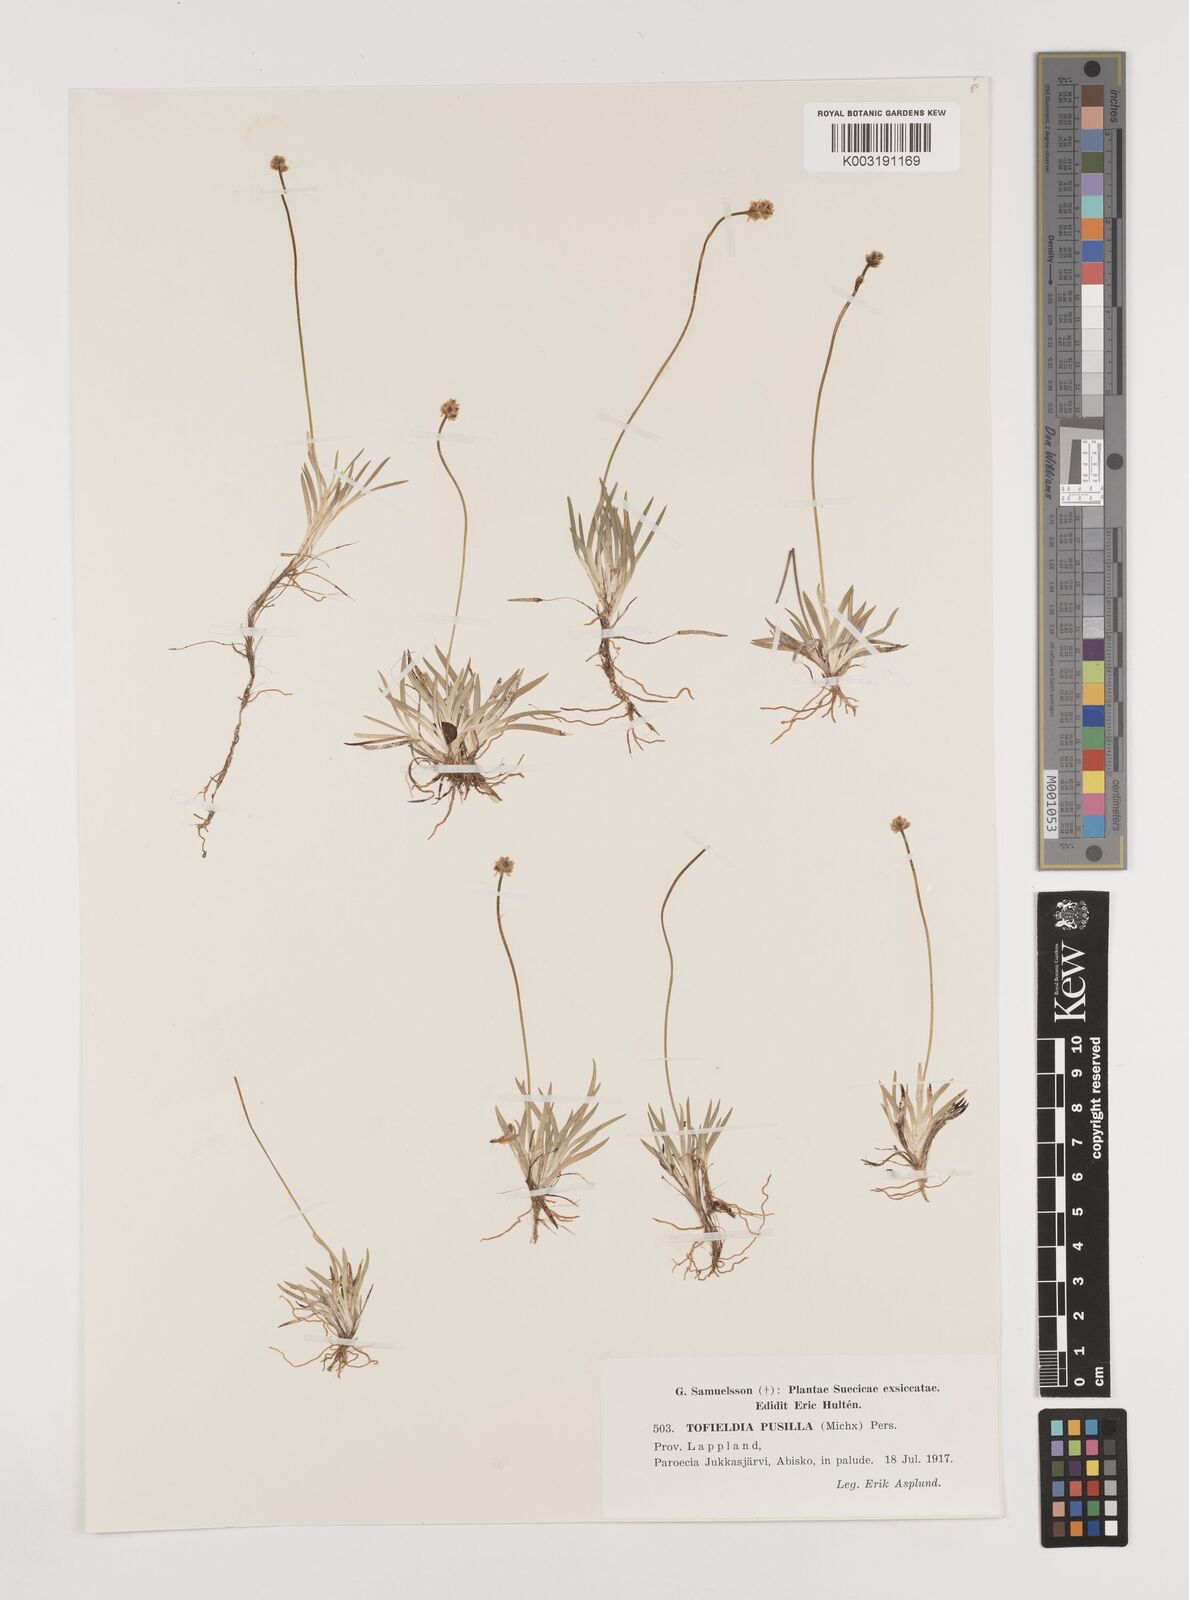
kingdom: Plantae
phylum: Tracheophyta
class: Liliopsida
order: Alismatales
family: Tofieldiaceae
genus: Tofieldia
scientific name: Tofieldia pusilla
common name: Scottish false asphodel
